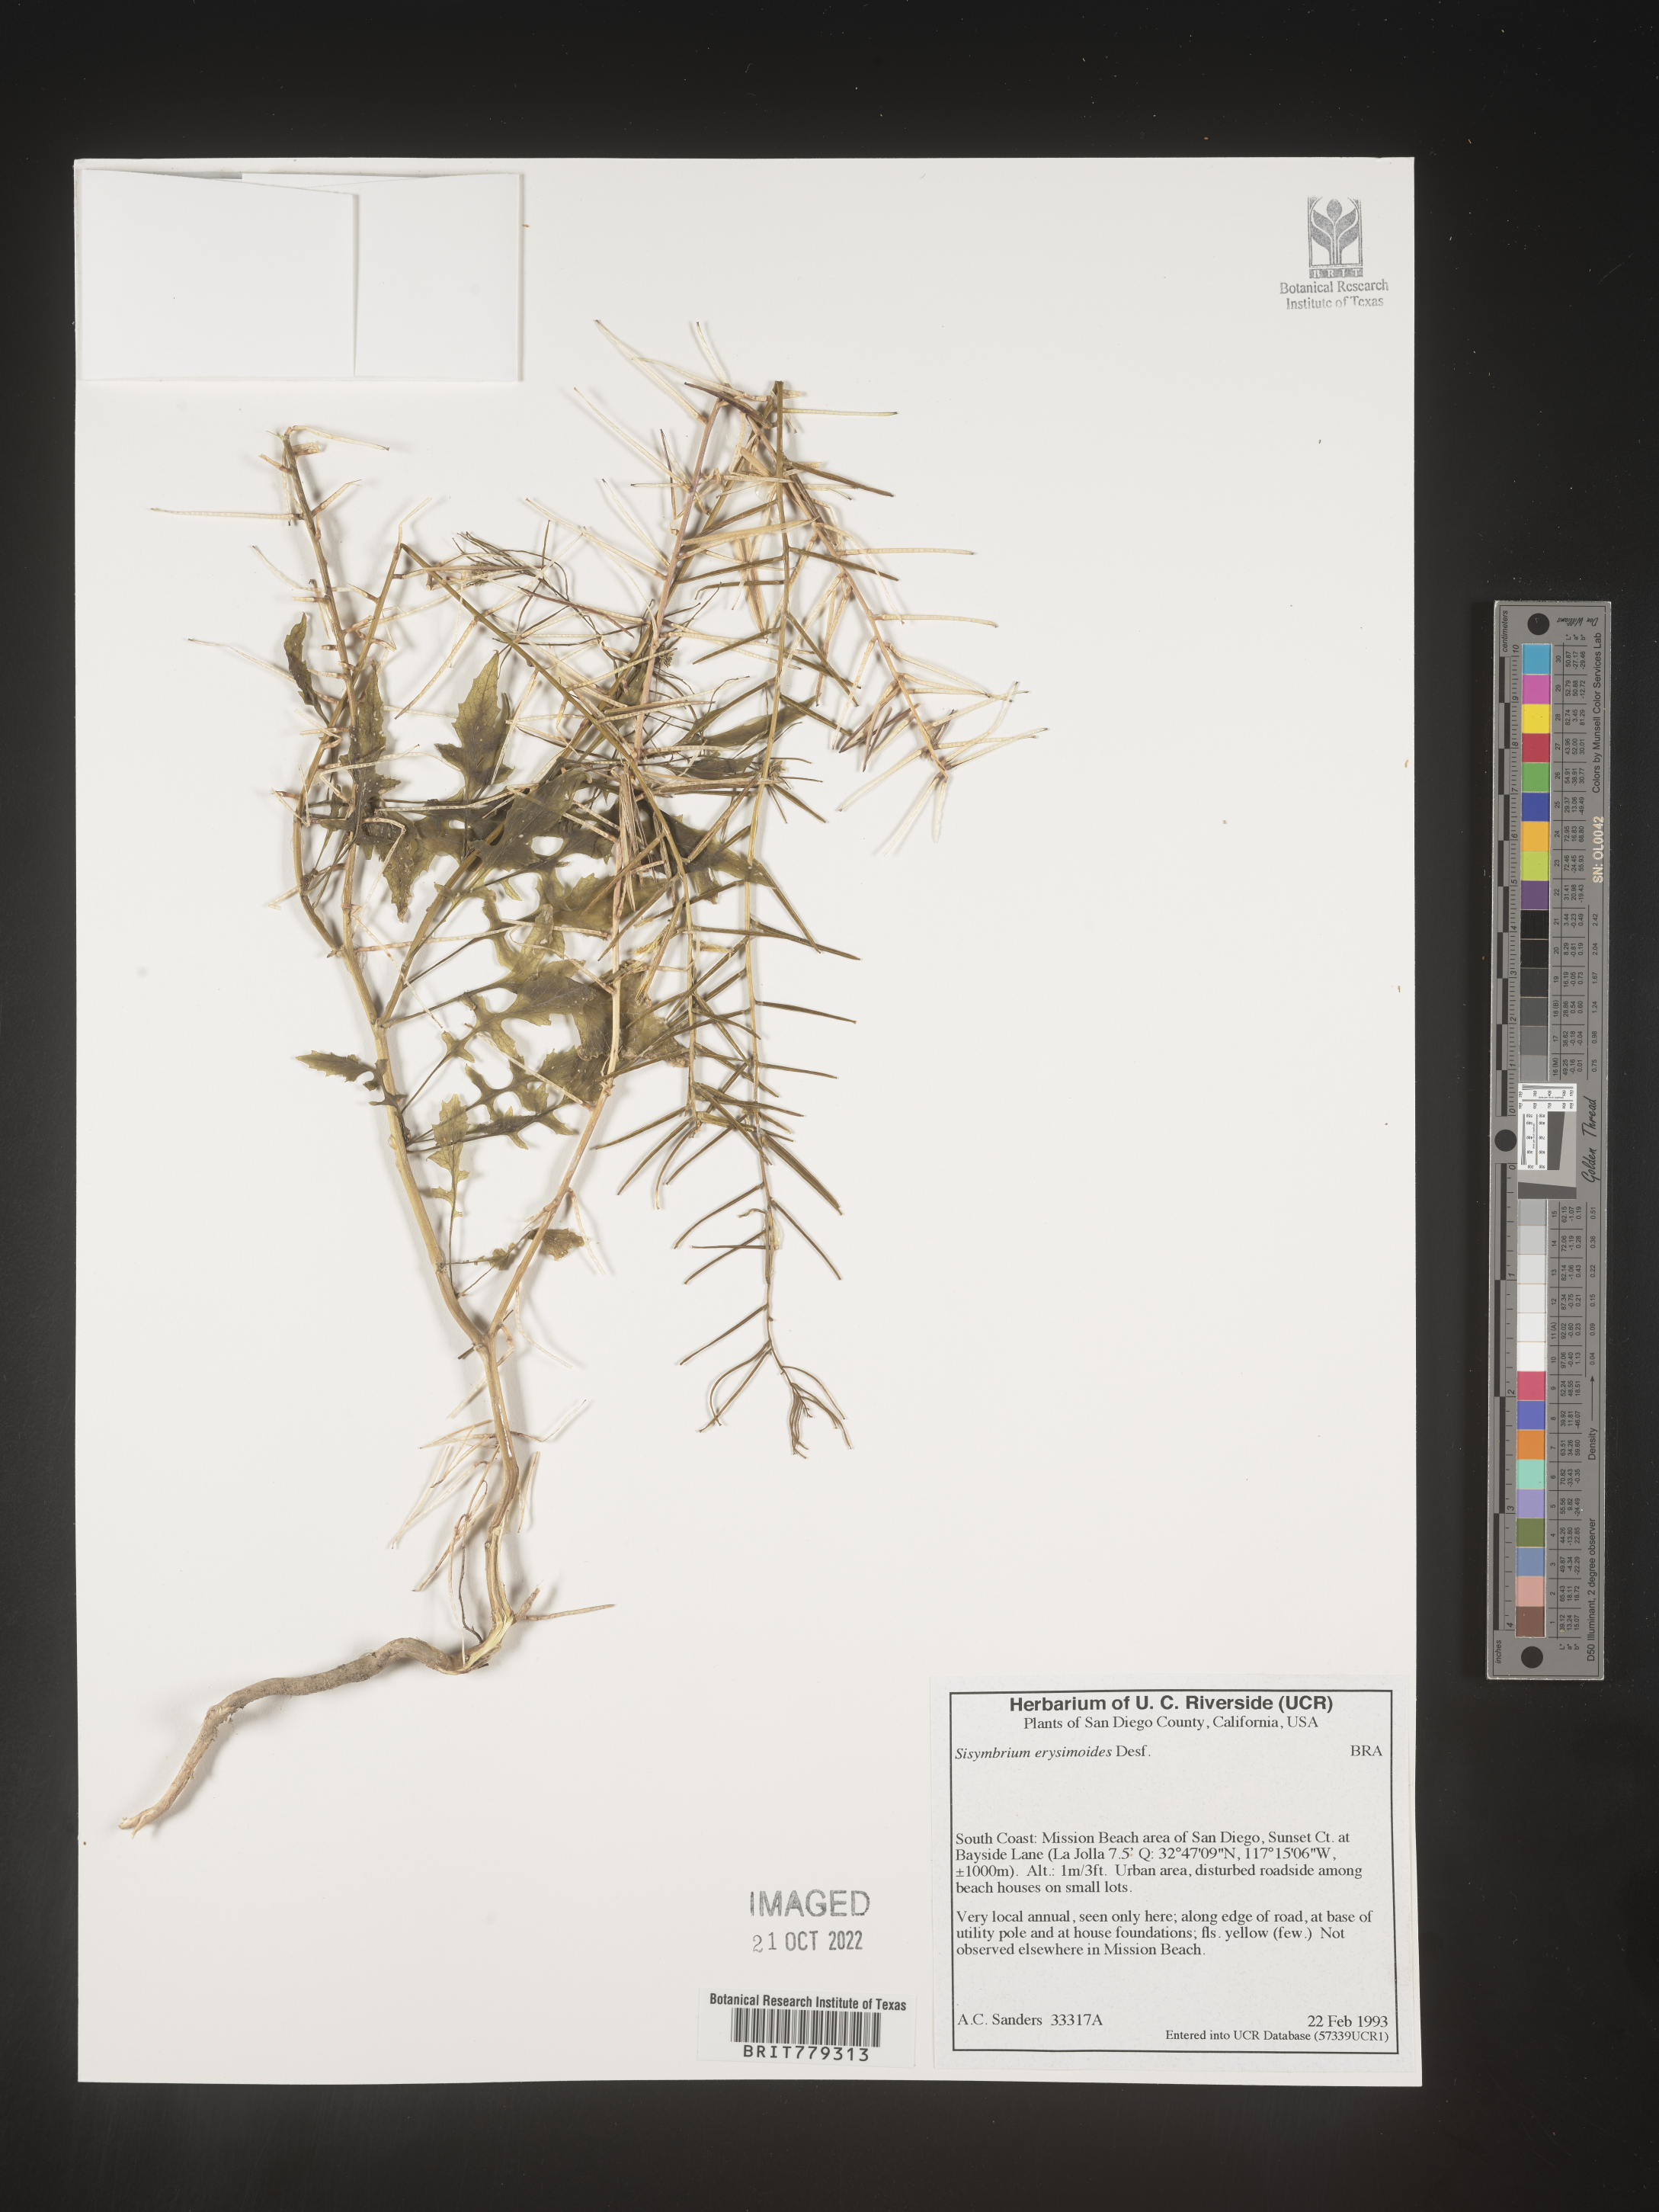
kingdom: Plantae
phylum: Tracheophyta
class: Magnoliopsida
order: Brassicales
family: Brassicaceae
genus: Sisymbrium
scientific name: Sisymbrium
